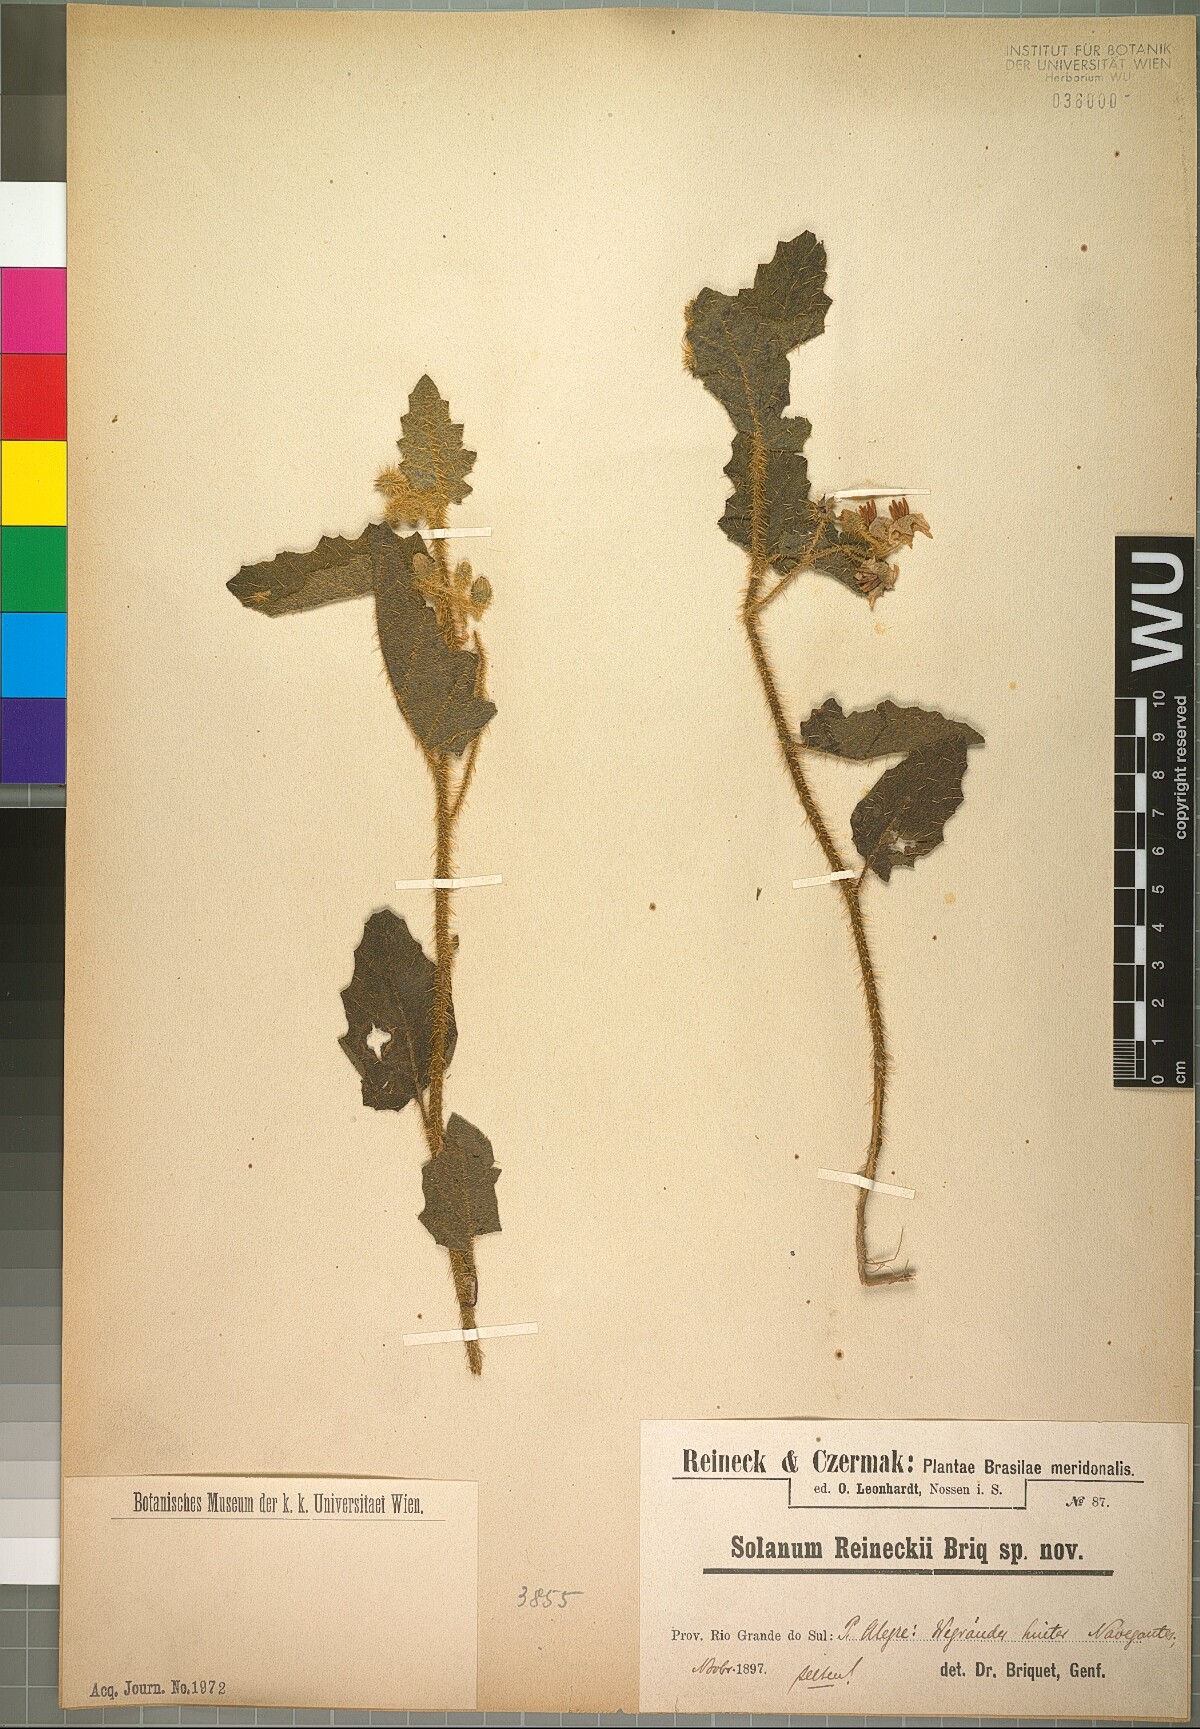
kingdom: Plantae
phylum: Tracheophyta
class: Magnoliopsida
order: Solanales
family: Solanaceae
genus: Solanum
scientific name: Solanum reineckii
